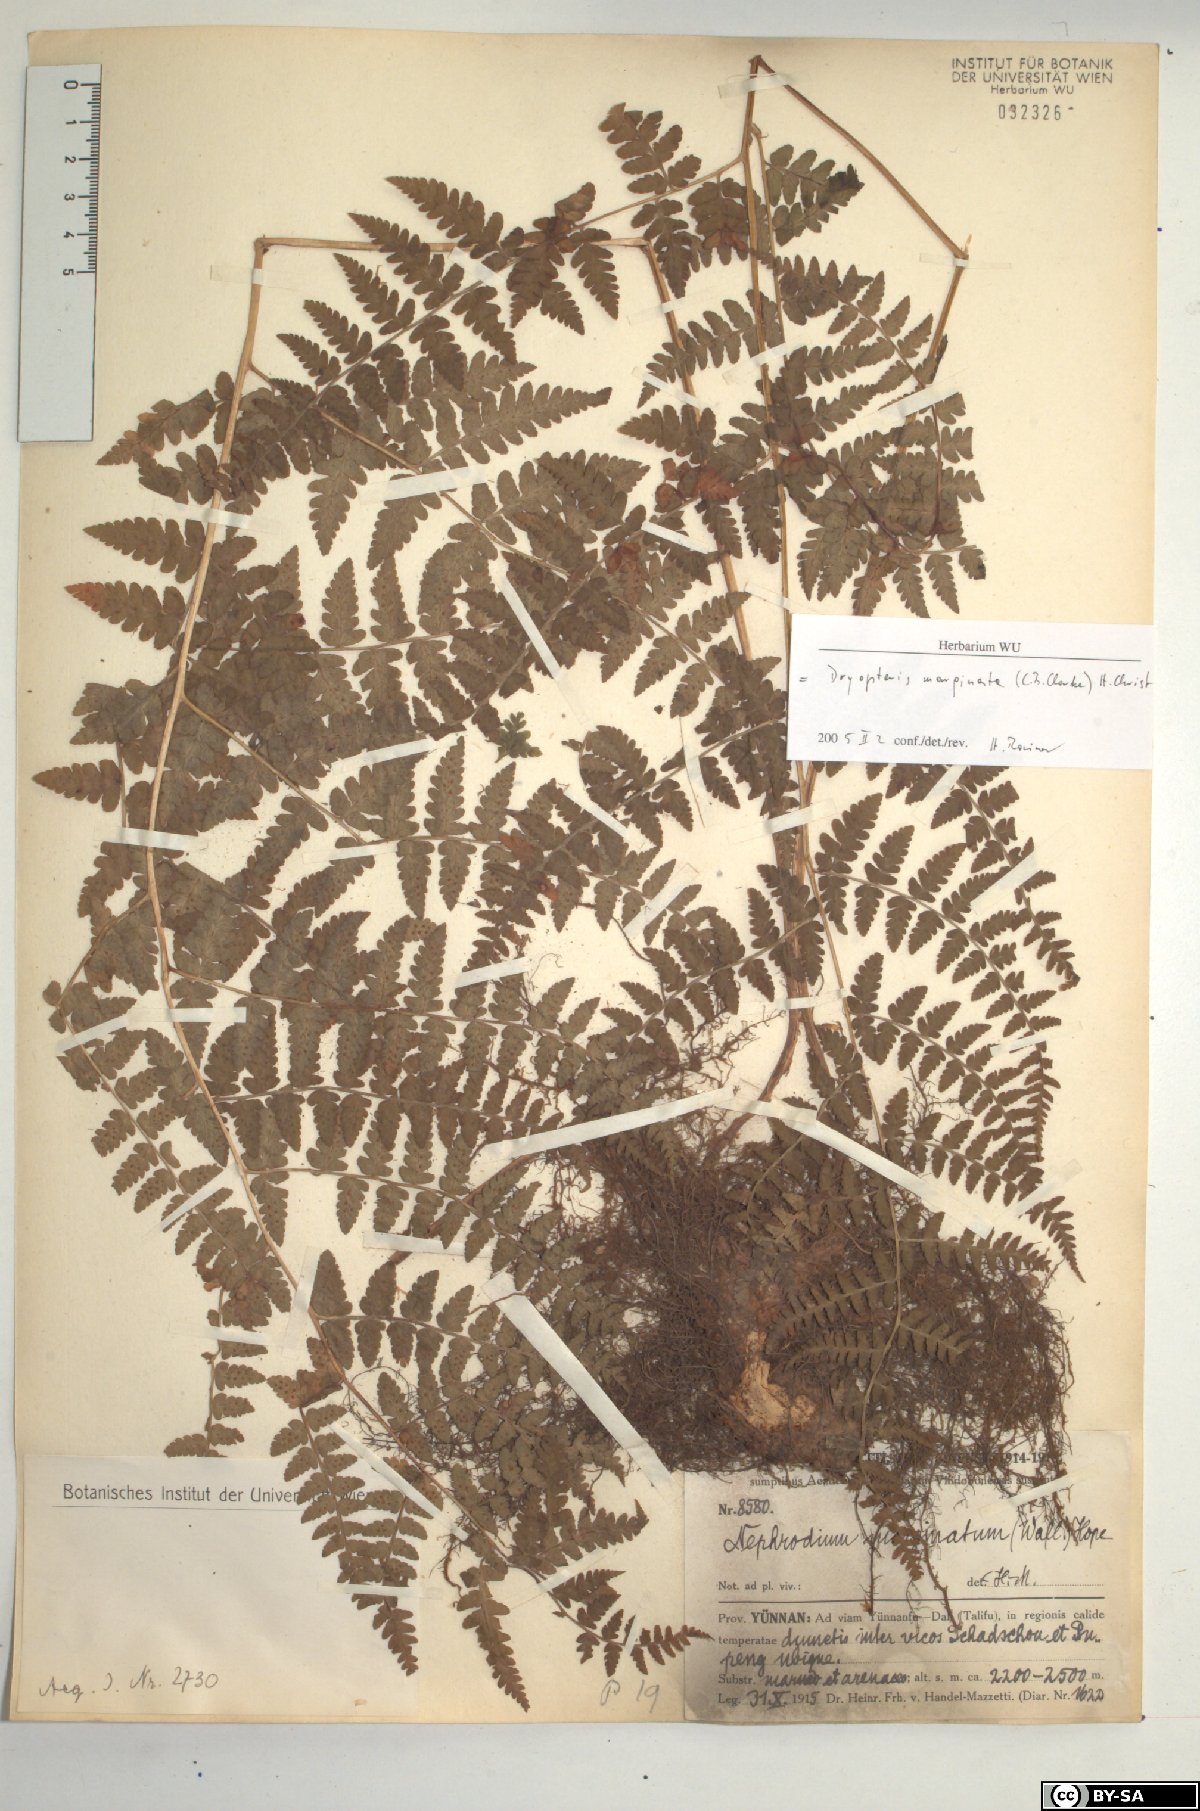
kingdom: Plantae
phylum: Tracheophyta
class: Polypodiopsida
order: Polypodiales
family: Dryopteridaceae
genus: Dryopteris
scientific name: Dryopteris marginata
